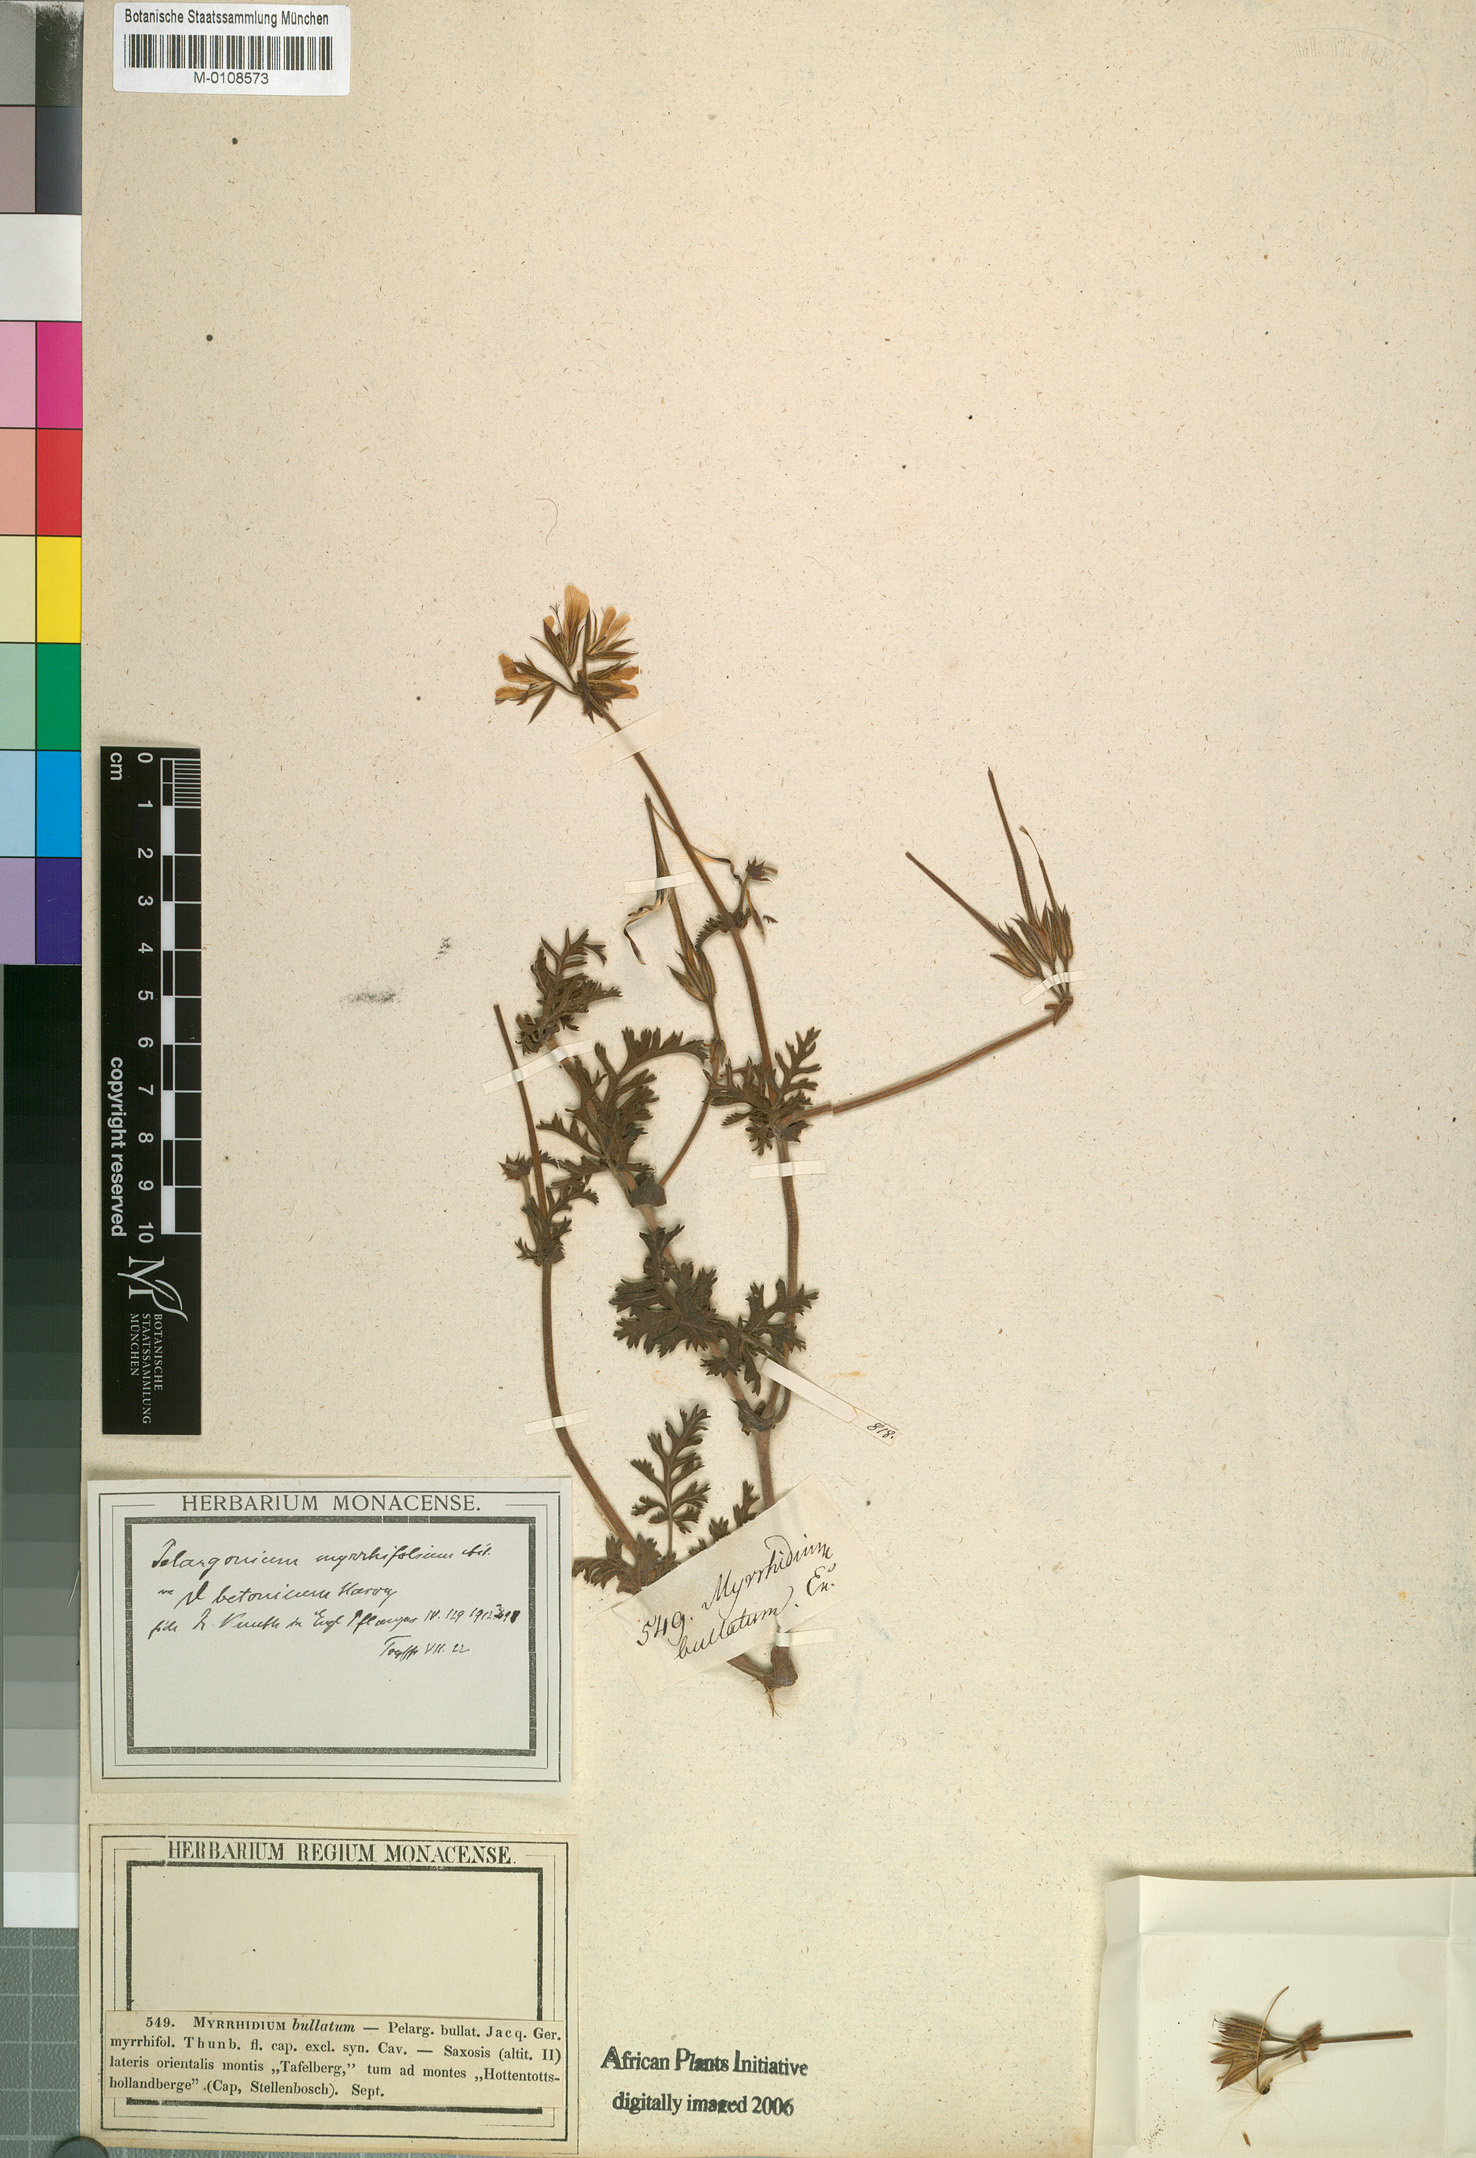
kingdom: Plantae
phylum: Tracheophyta
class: Magnoliopsida
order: Geraniales
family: Geraniaceae
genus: Pelargonium
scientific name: Pelargonium myrrhifolium
